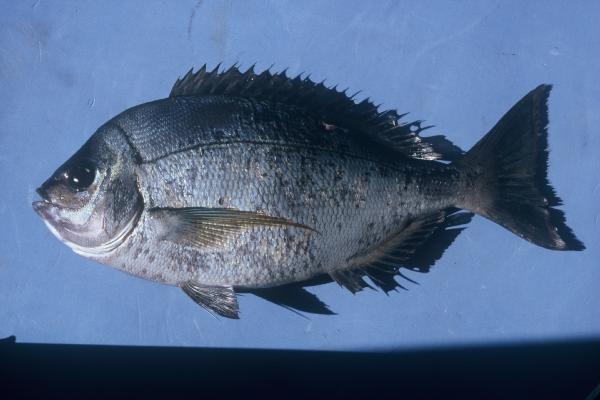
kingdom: Animalia
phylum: Chordata
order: Perciformes
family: Sparidae
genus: Polyamblyodon
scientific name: Polyamblyodon gibbosum
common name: Cristie
